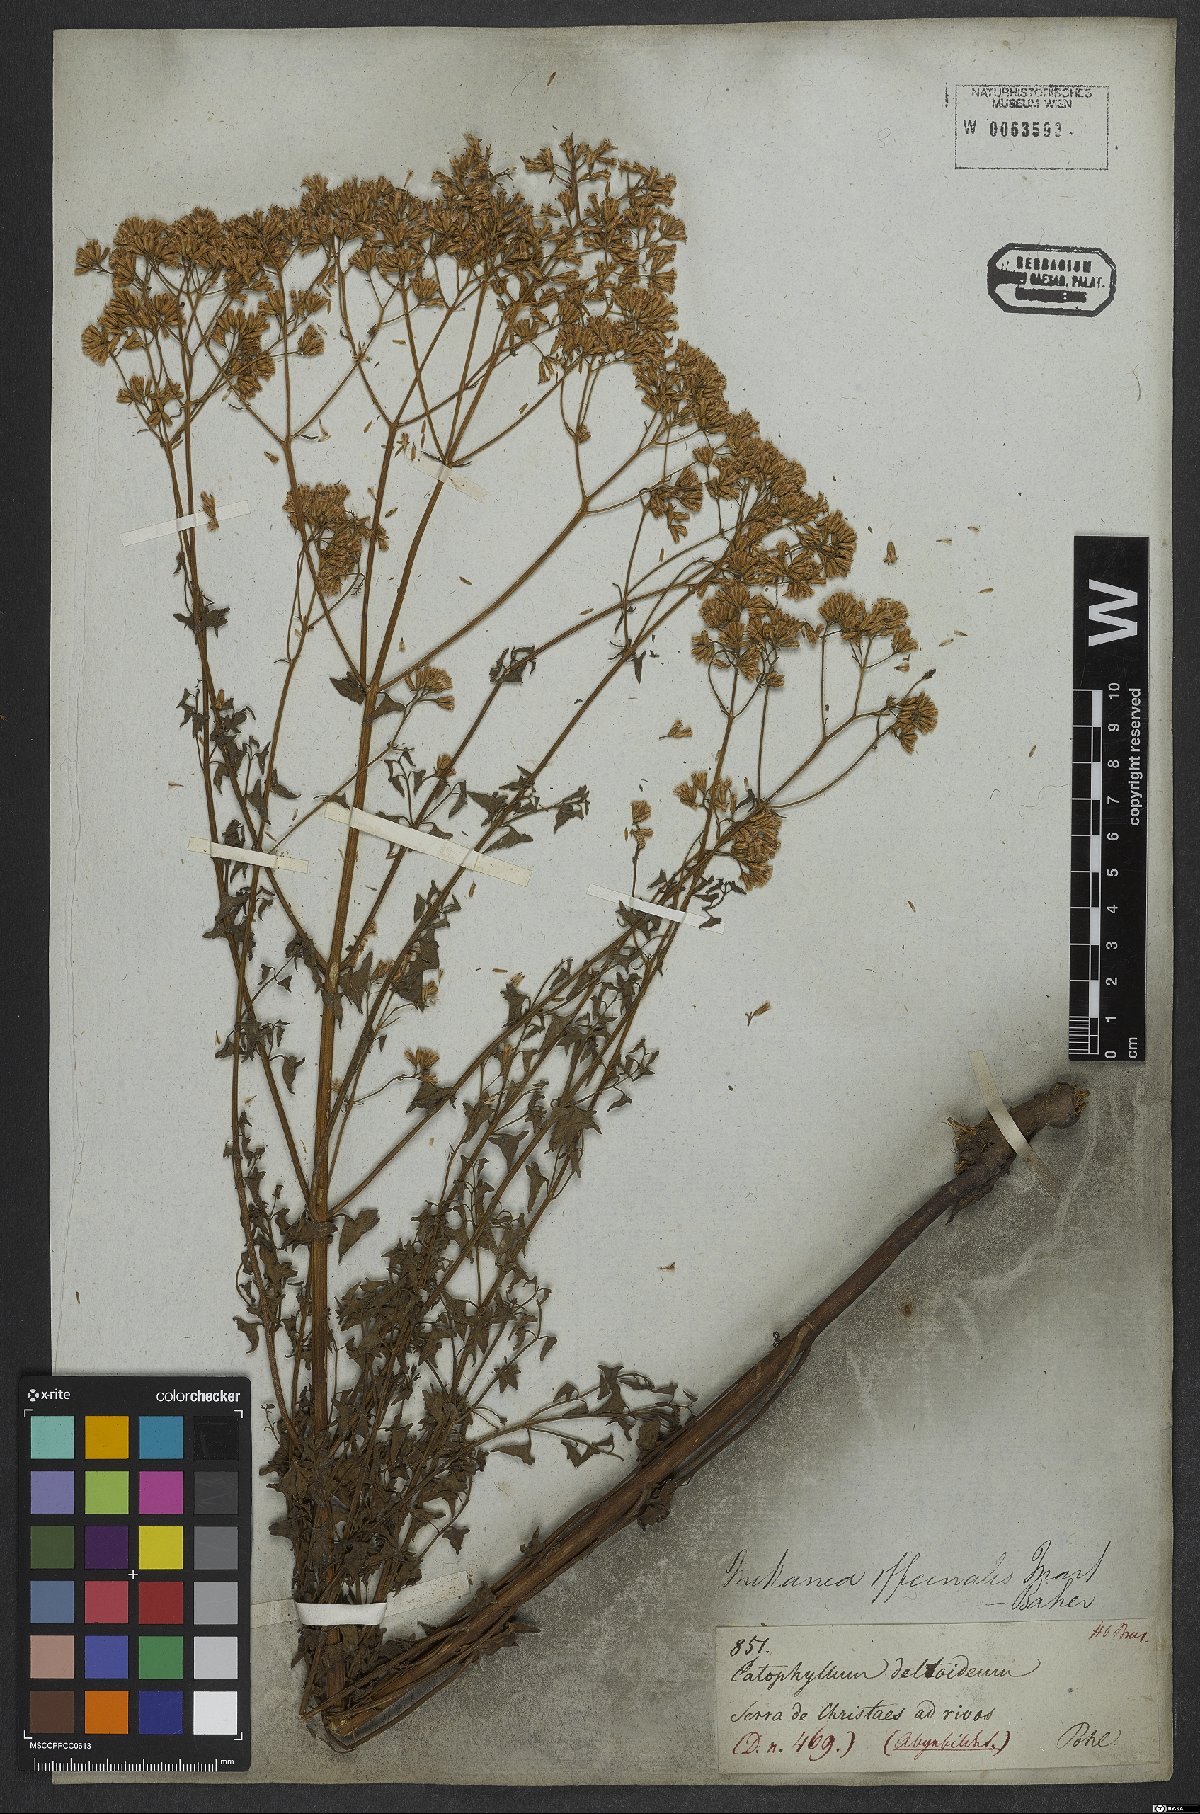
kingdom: Plantae
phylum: Tracheophyta
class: Magnoliopsida
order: Asterales
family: Asteraceae
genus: Mikania
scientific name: Mikania officinalis
